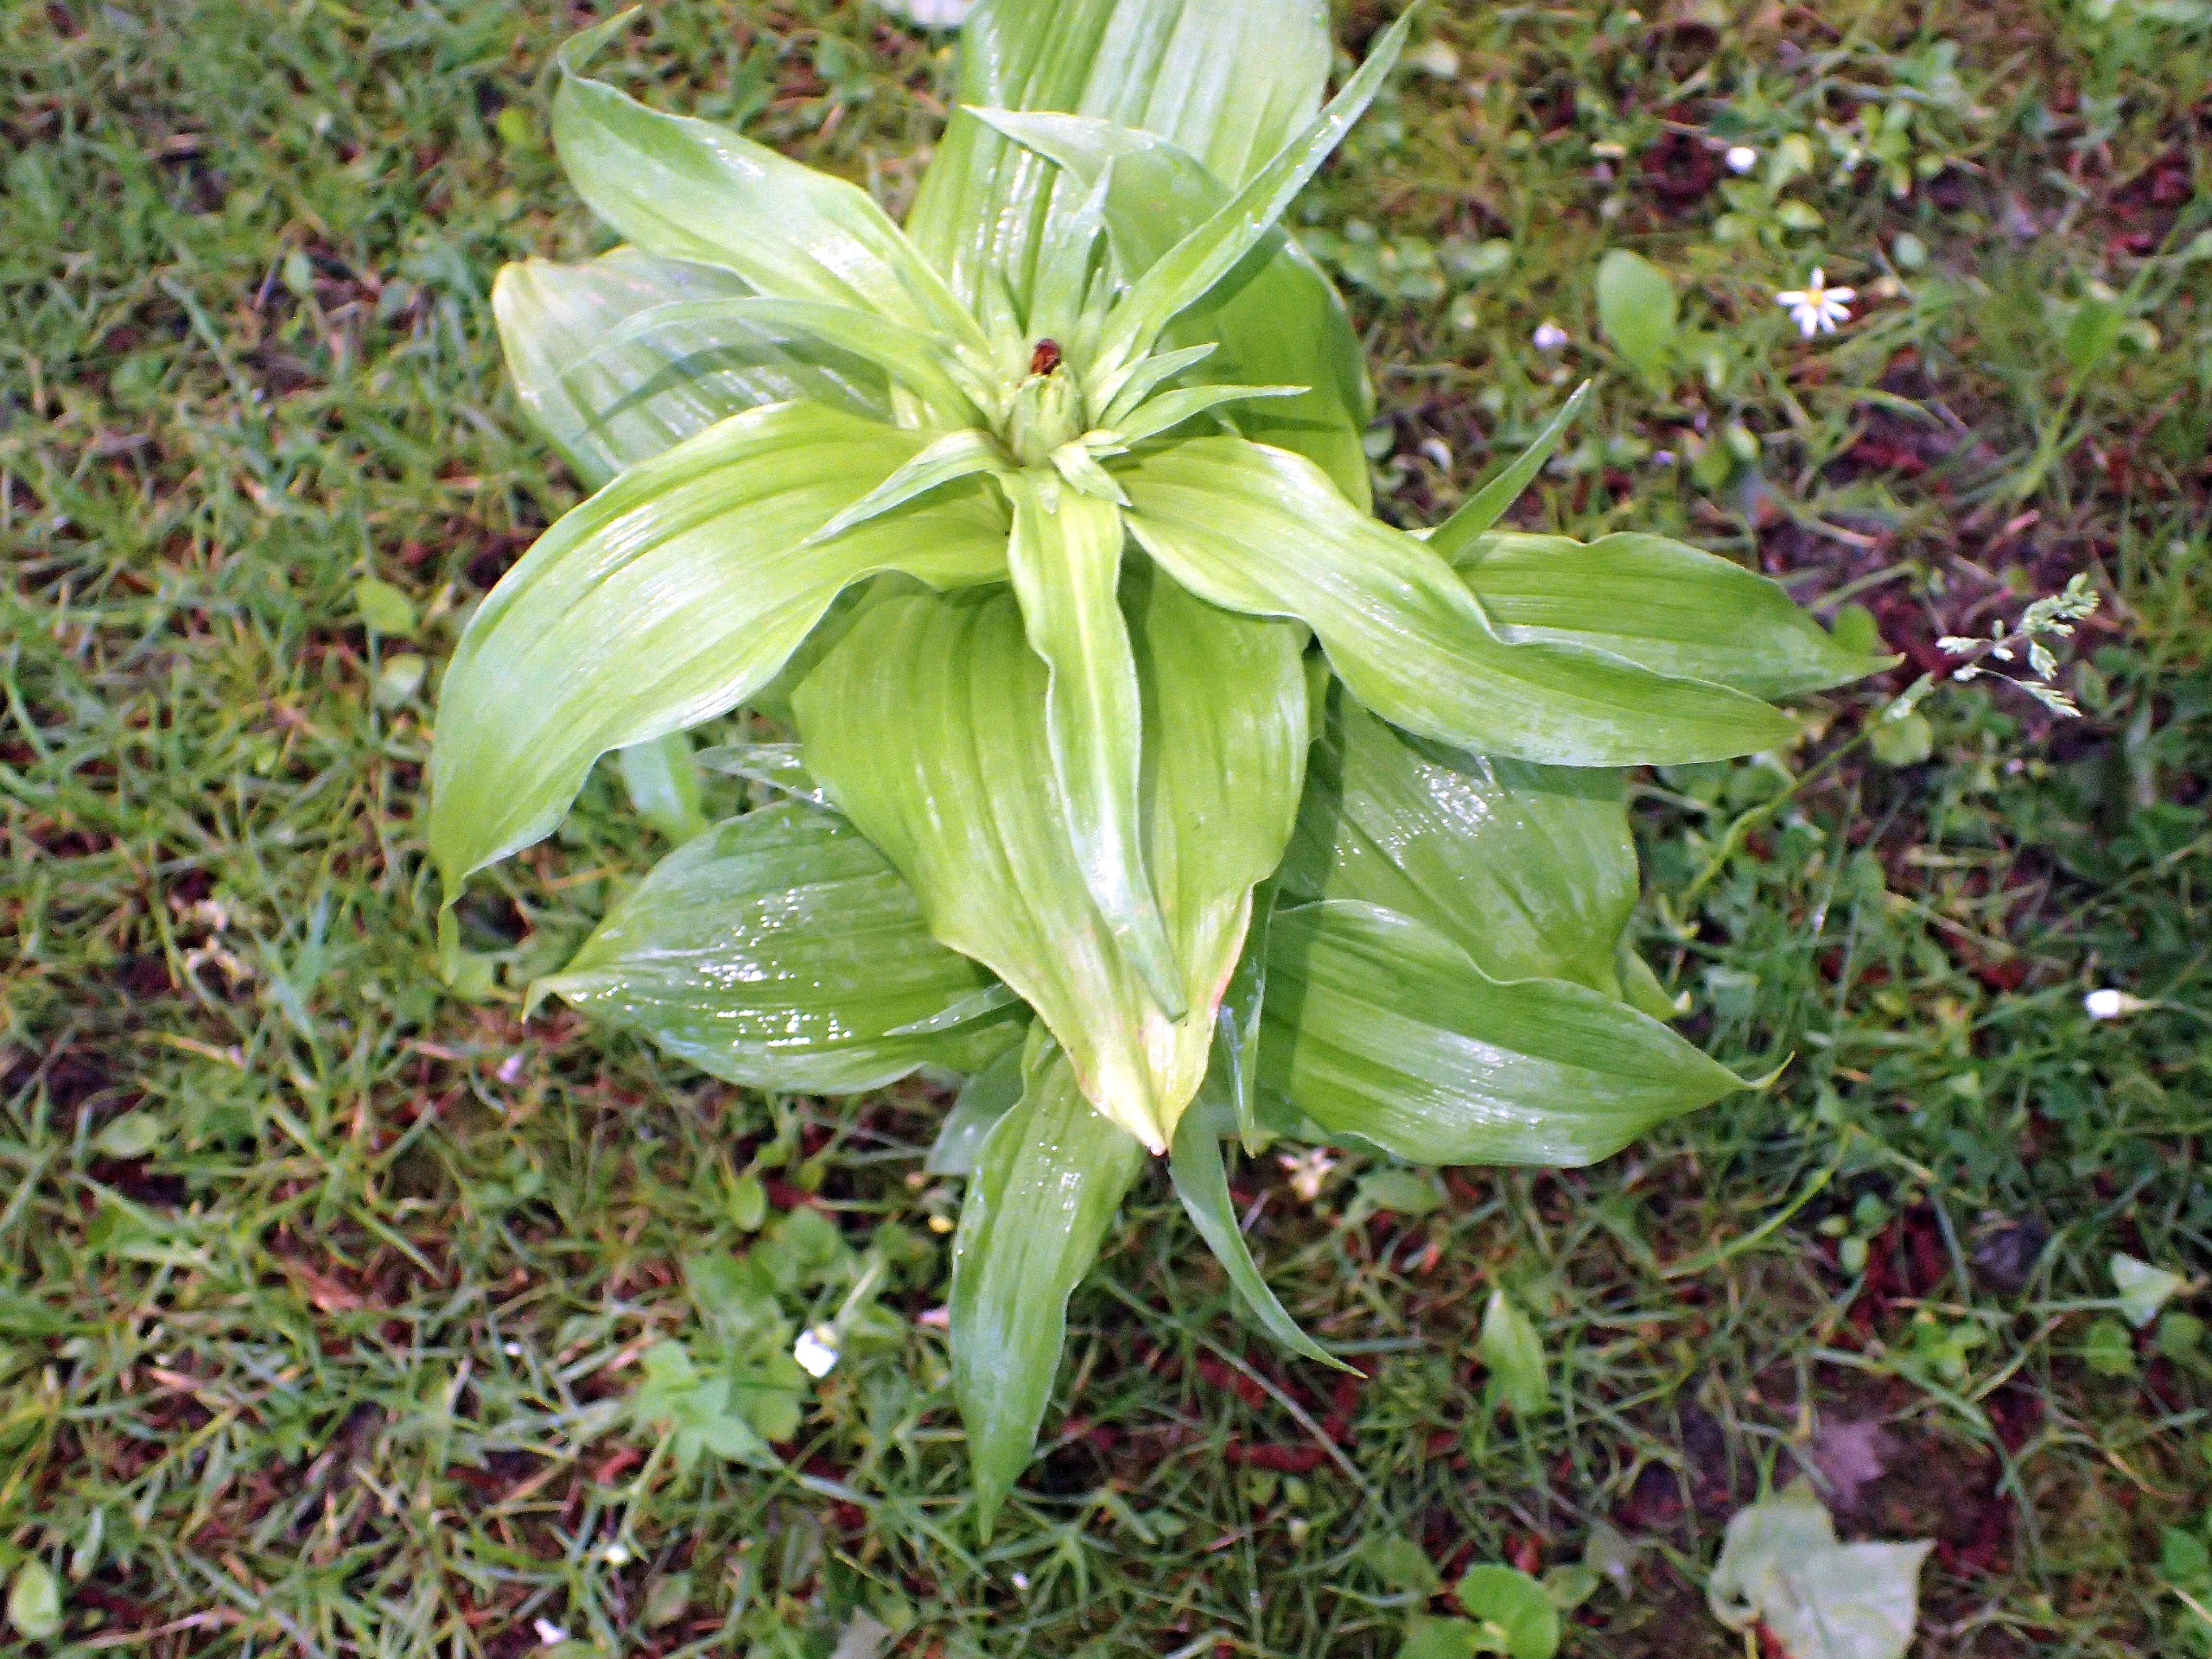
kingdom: Plantae
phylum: Tracheophyta
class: Liliopsida
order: Asparagales
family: Orchidaceae
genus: Epipactis
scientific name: Epipactis helleborine
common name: Skov-hullæbe
